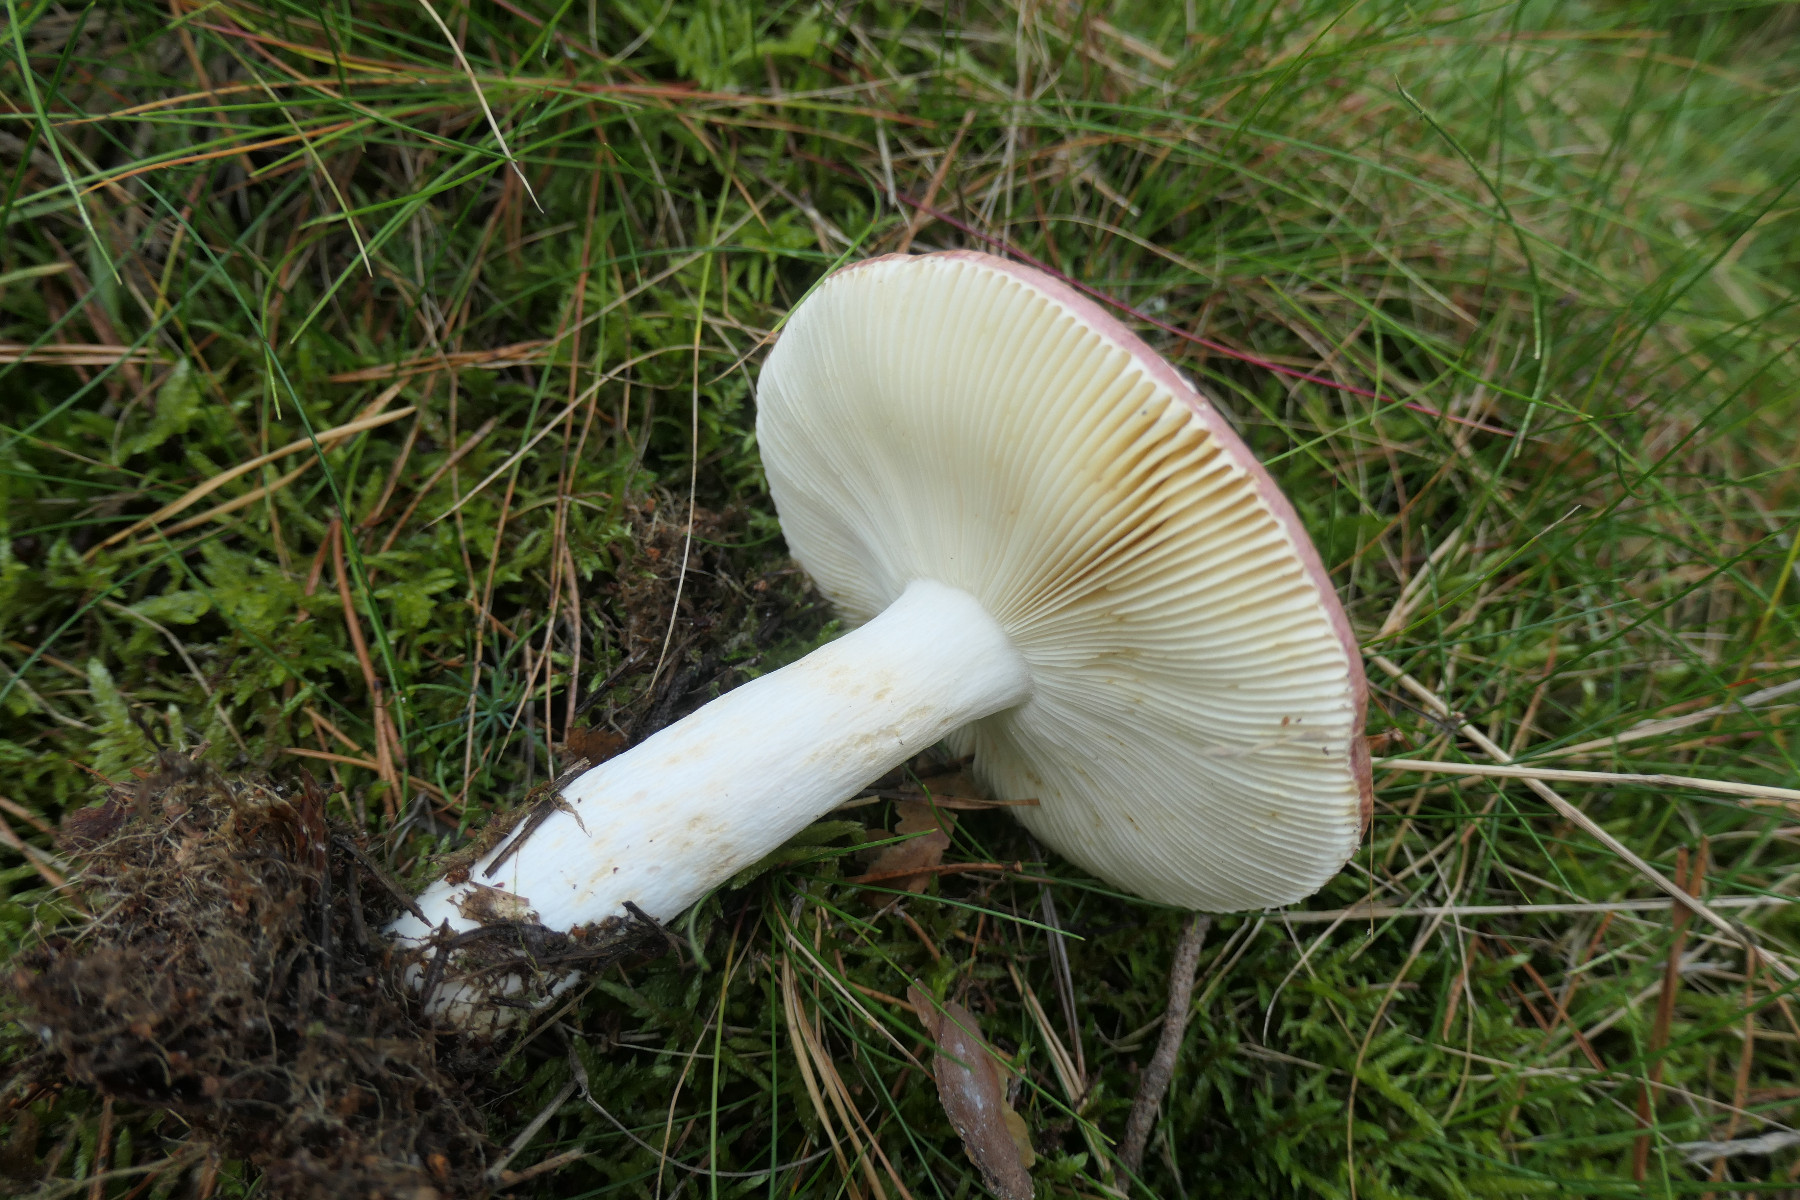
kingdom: Fungi
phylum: Basidiomycota
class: Agaricomycetes
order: Russulales
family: Russulaceae
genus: Russula
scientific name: Russula vinosa
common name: vinrød skørhat
